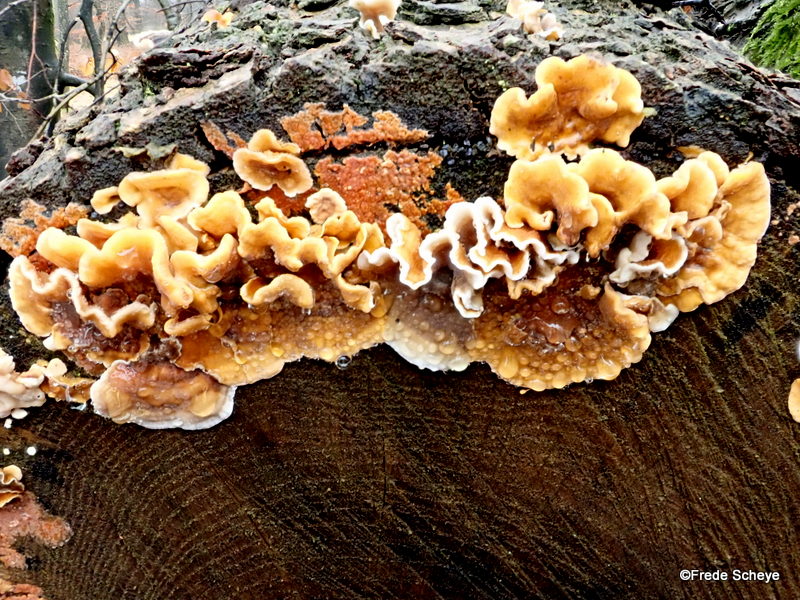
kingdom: Fungi
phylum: Basidiomycota
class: Agaricomycetes
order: Russulales
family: Stereaceae
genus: Stereum
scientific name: Stereum hirsutum
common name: håret lædersvamp
